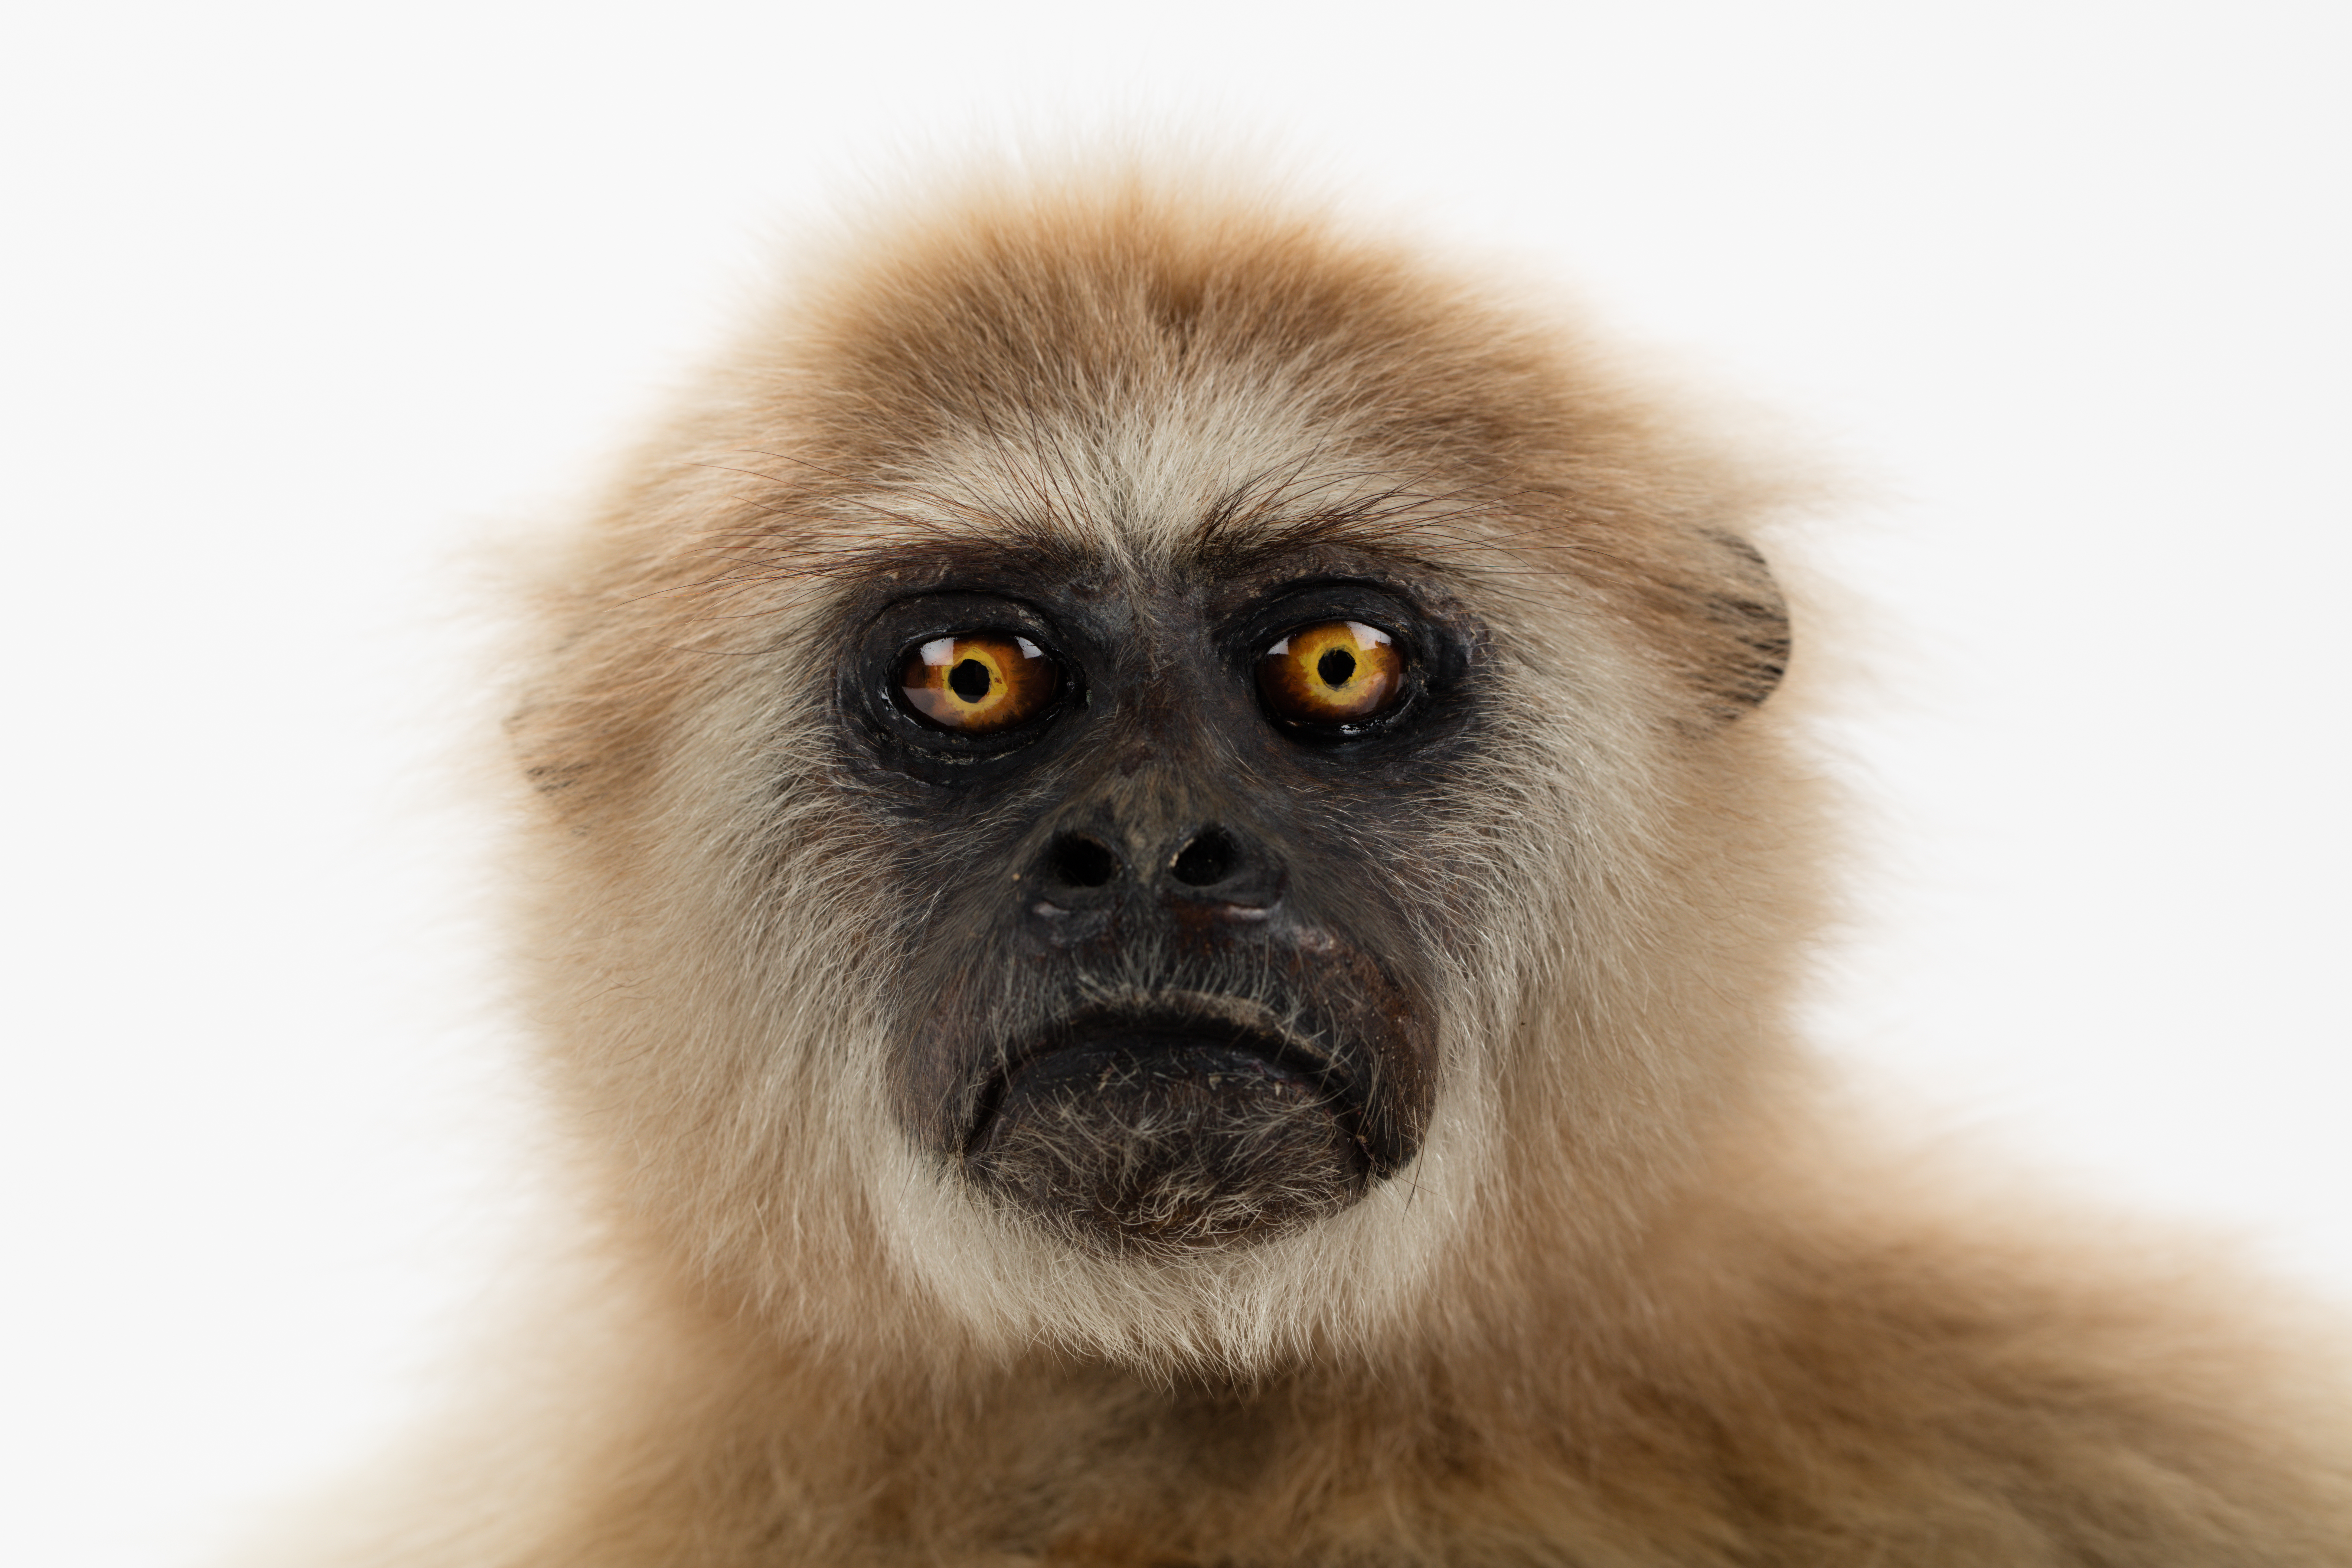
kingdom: Animalia
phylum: Chordata
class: Mammalia
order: Primates
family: Hylobatidae
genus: Hylobates
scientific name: Hylobates
